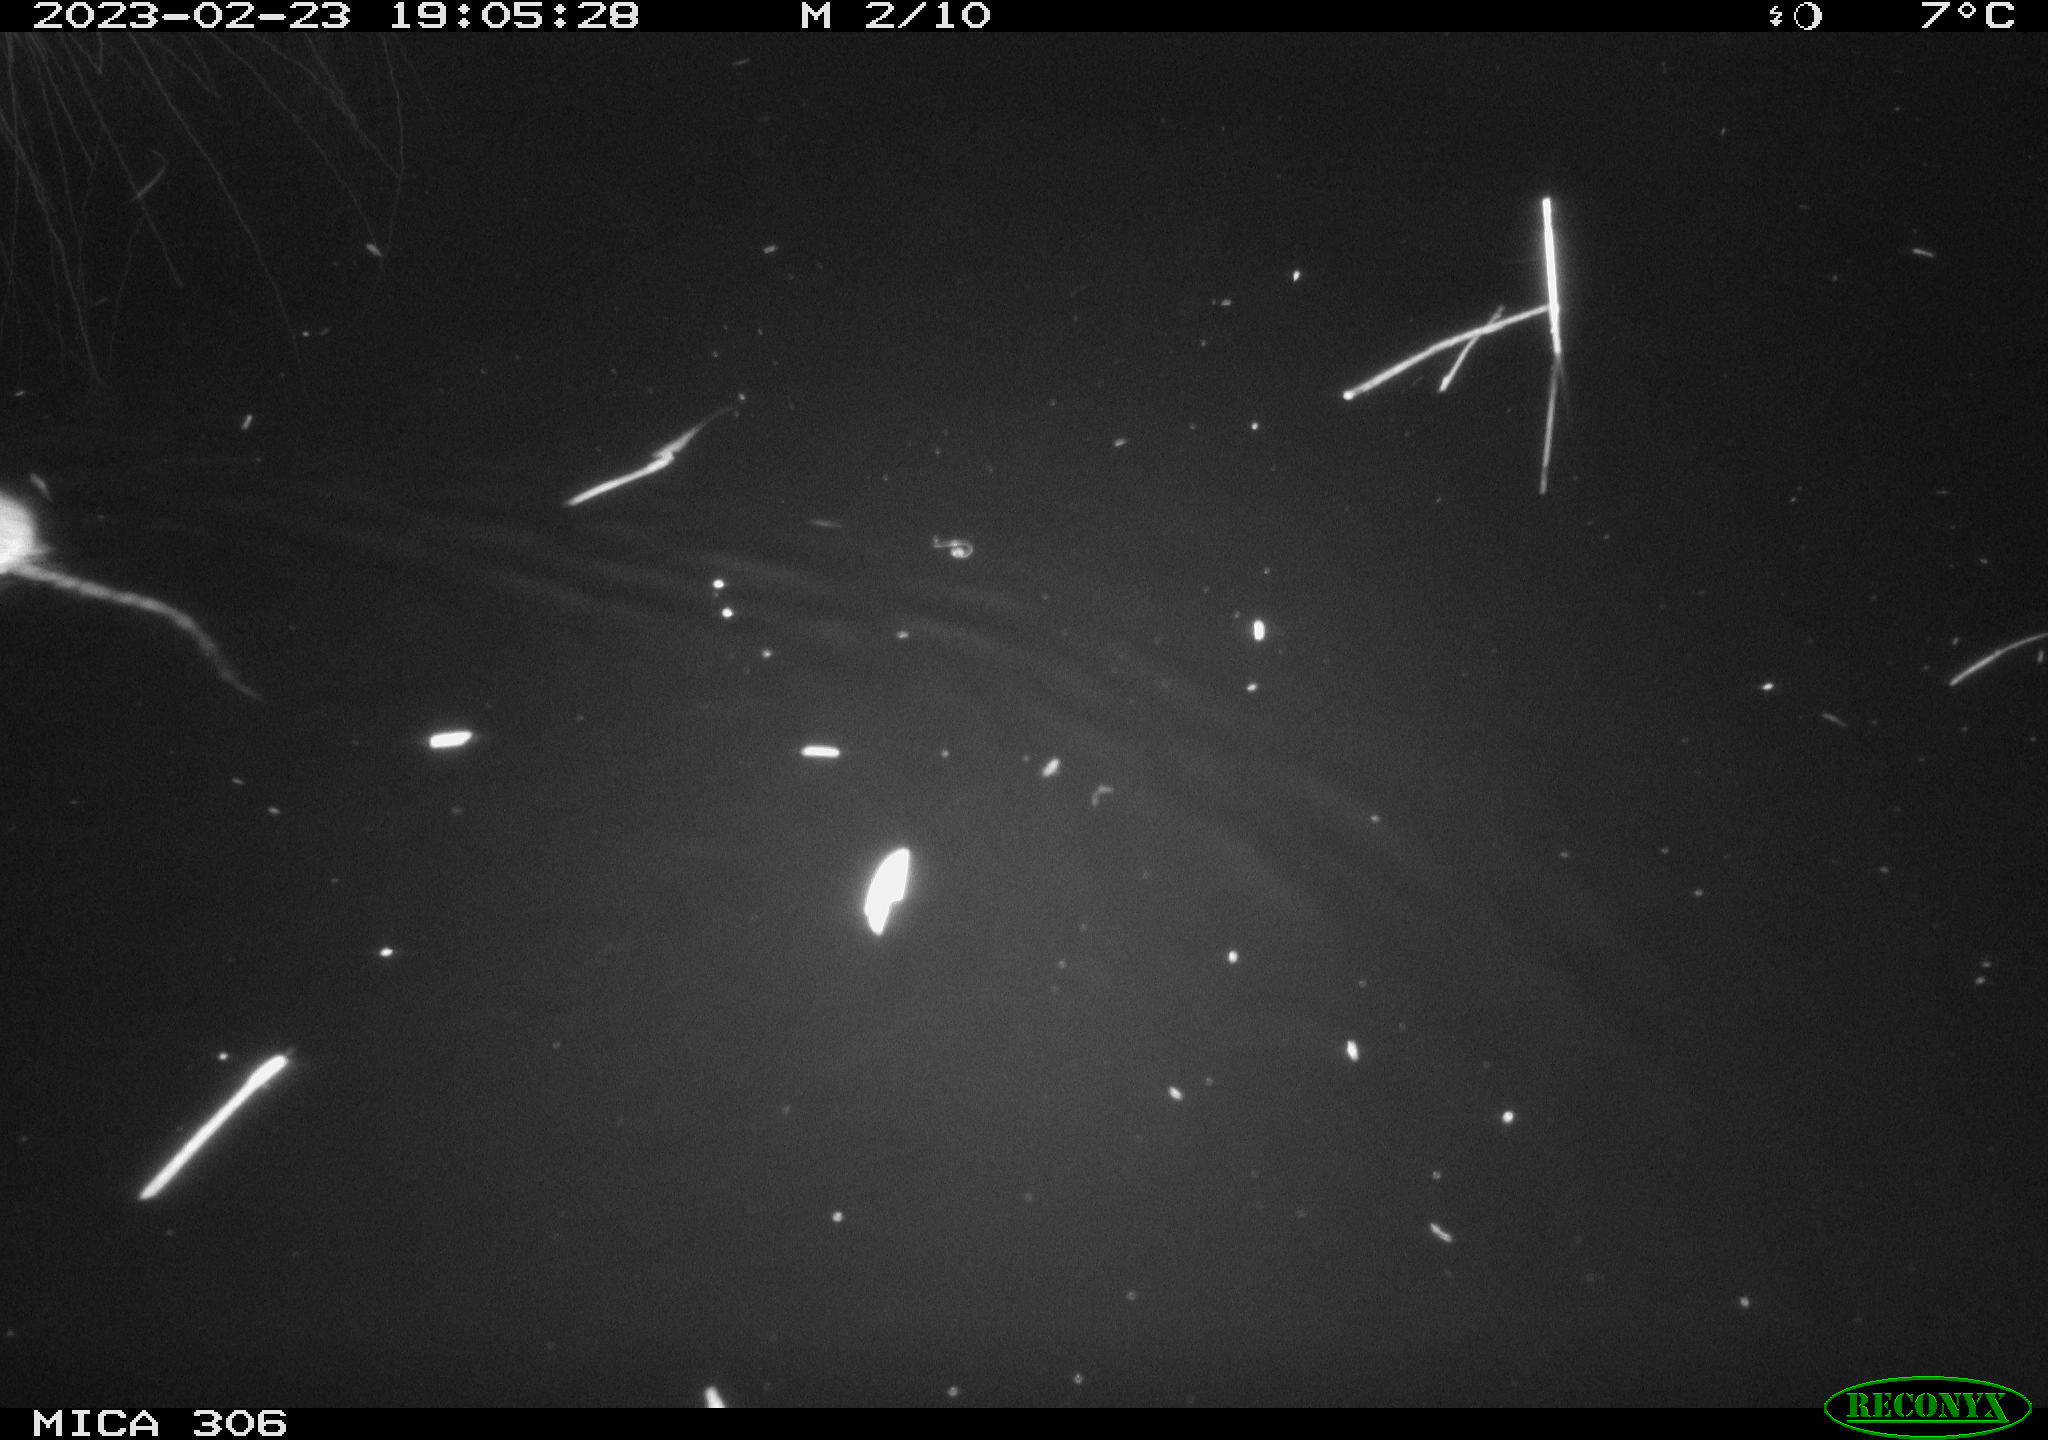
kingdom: Animalia
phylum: Chordata
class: Mammalia
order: Rodentia
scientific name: Rodentia
